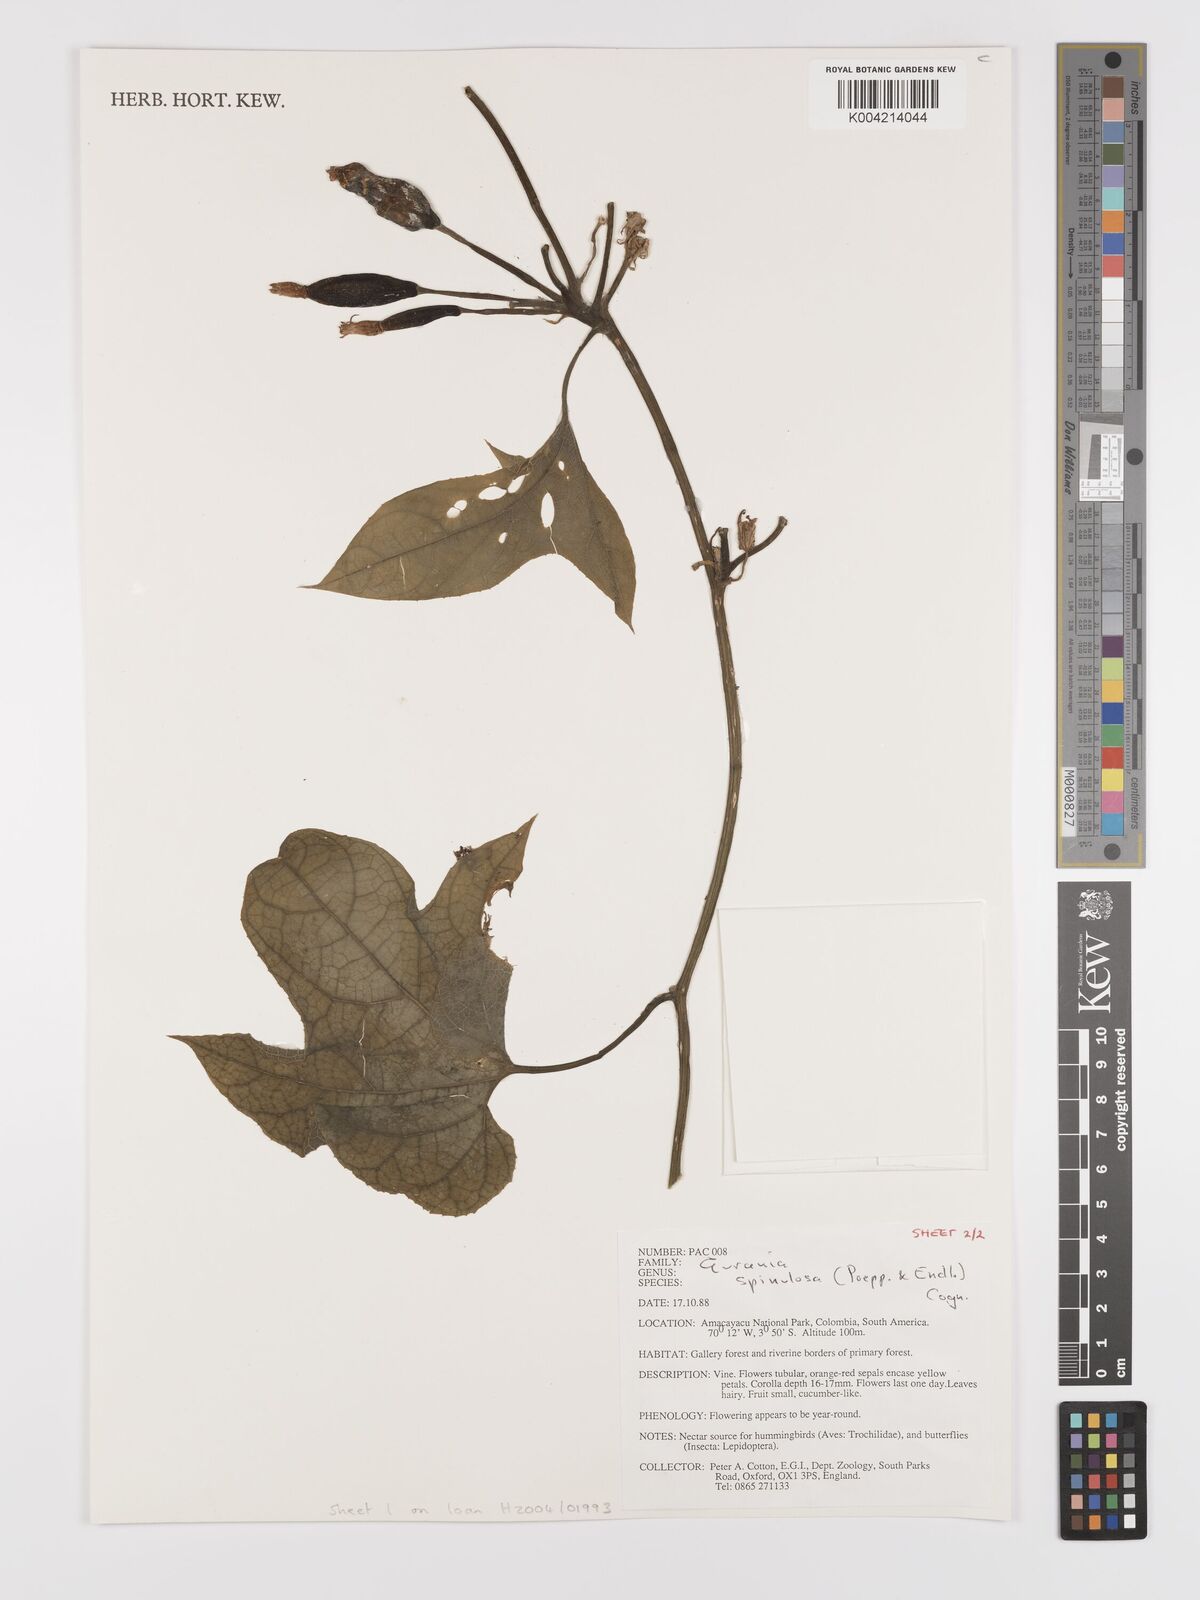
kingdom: Plantae
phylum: Tracheophyta
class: Magnoliopsida
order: Cucurbitales
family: Cucurbitaceae
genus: Gurania
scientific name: Gurania lobata
